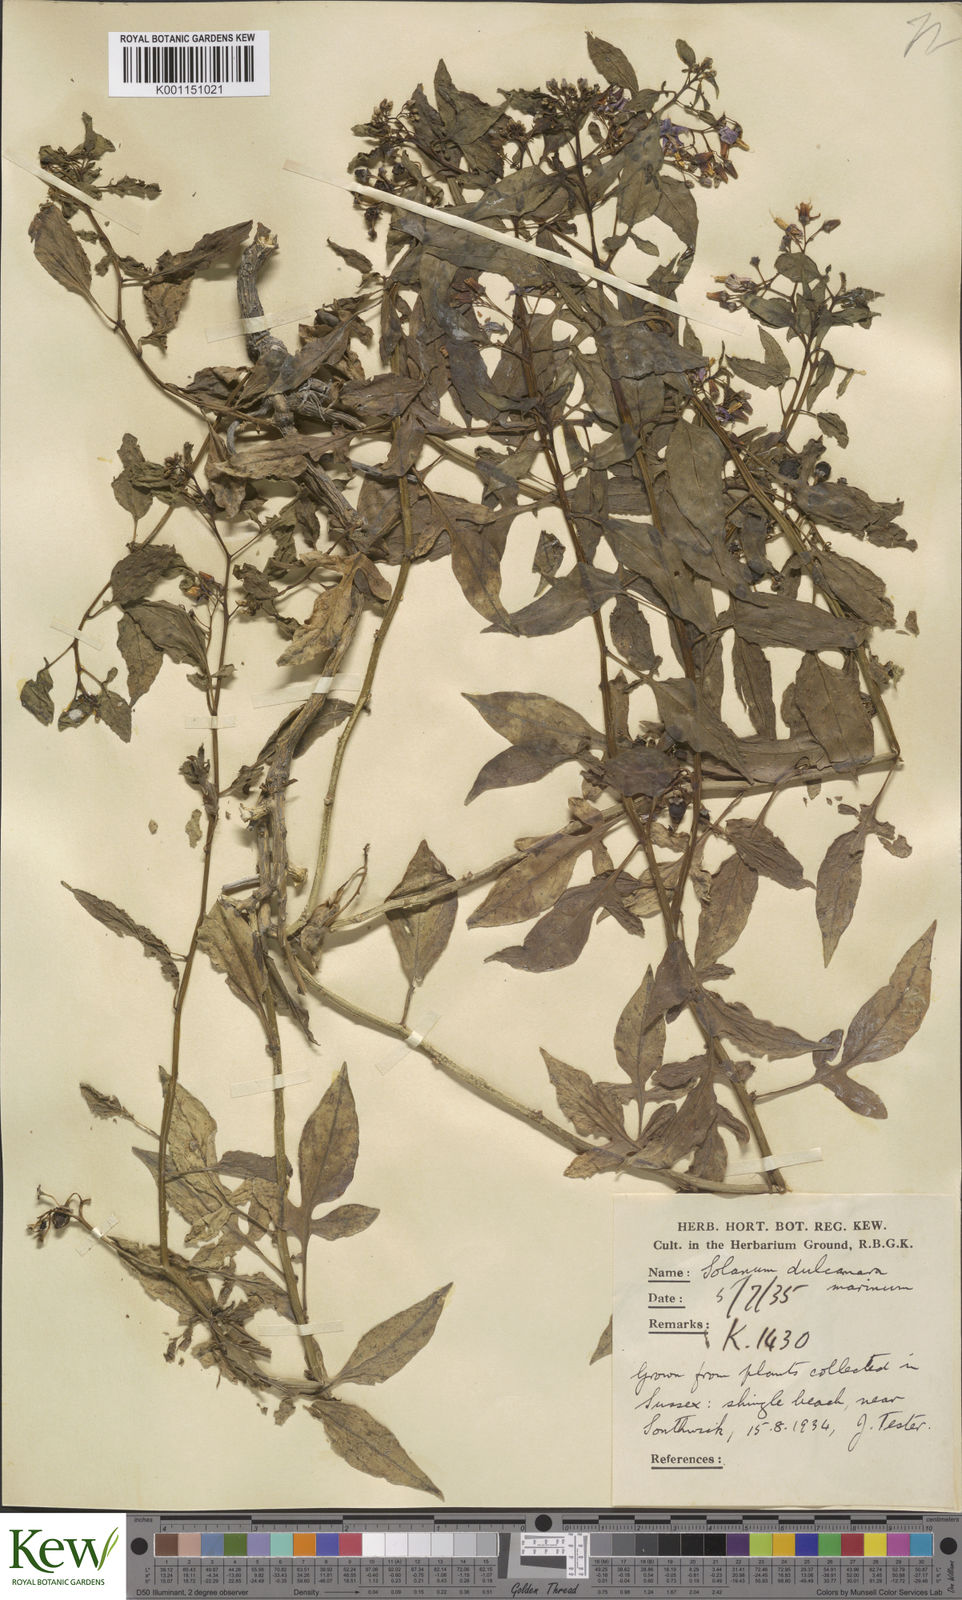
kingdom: Plantae
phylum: Tracheophyta
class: Magnoliopsida
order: Solanales
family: Solanaceae
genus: Solanum
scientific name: Solanum dulcamara
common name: Climbing nightshade
